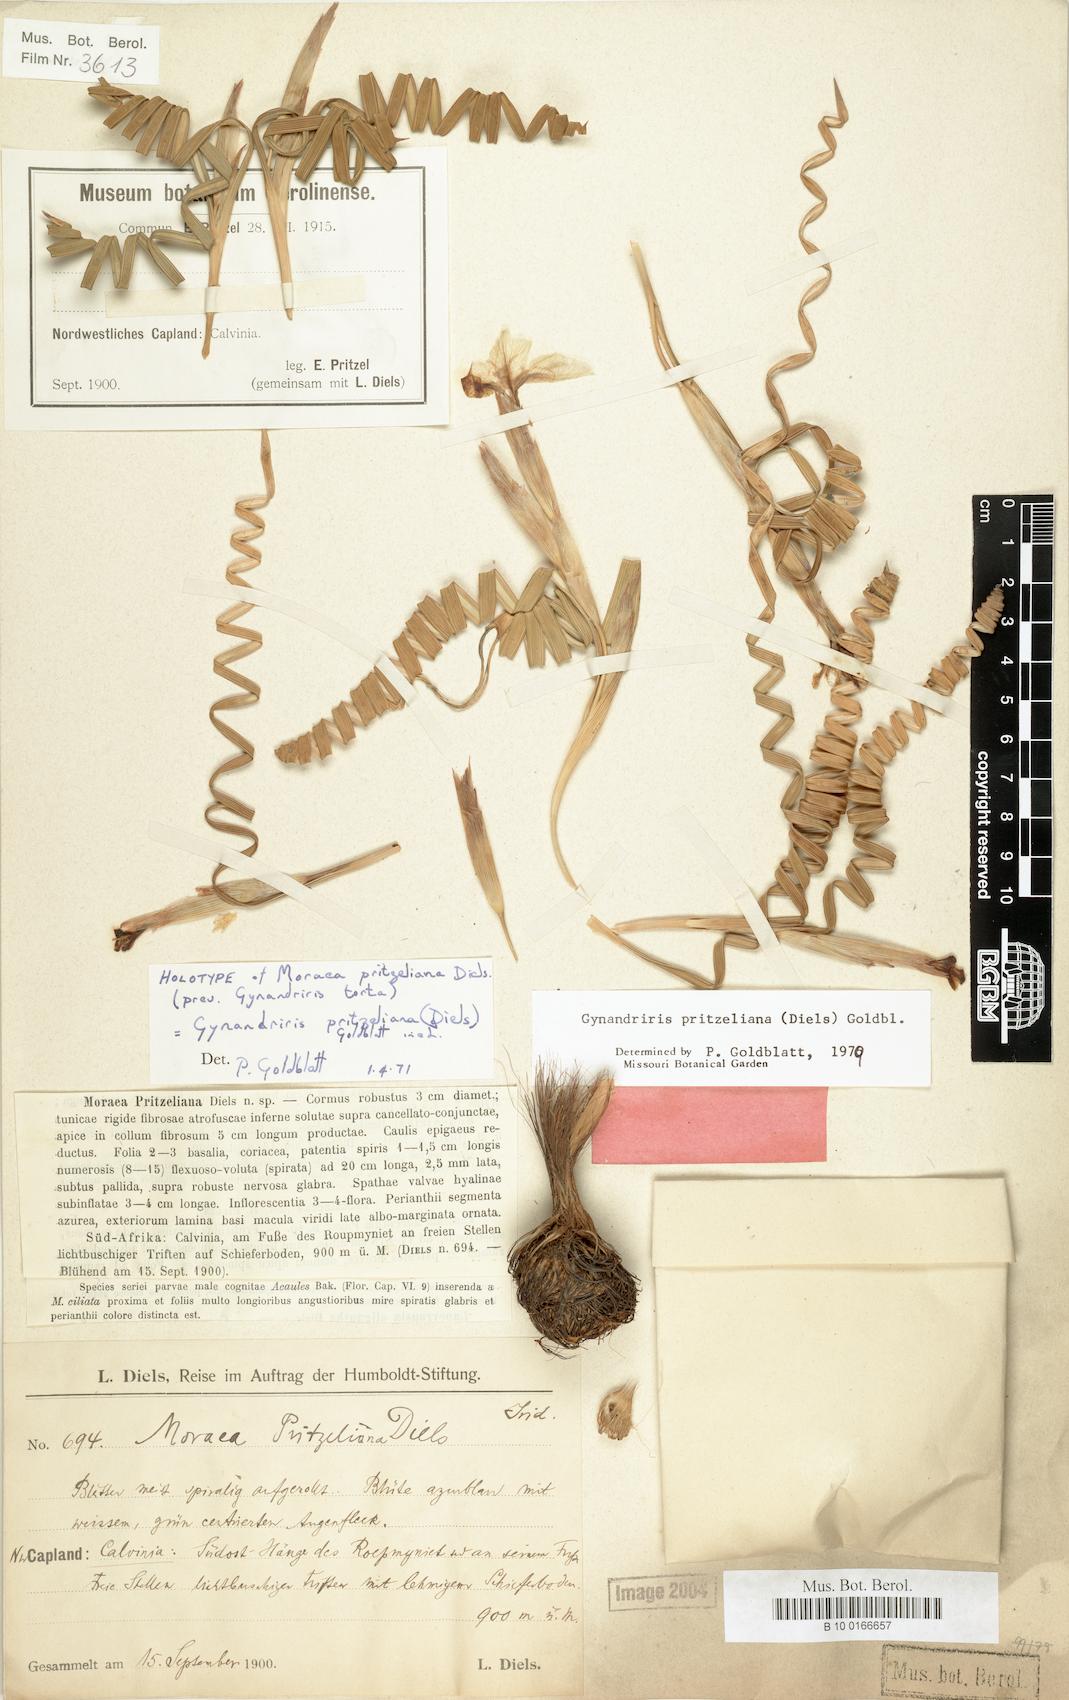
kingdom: Plantae
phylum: Tracheophyta
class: Liliopsida
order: Asparagales
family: Iridaceae
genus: Moraea
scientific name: Moraea pritzeliana
